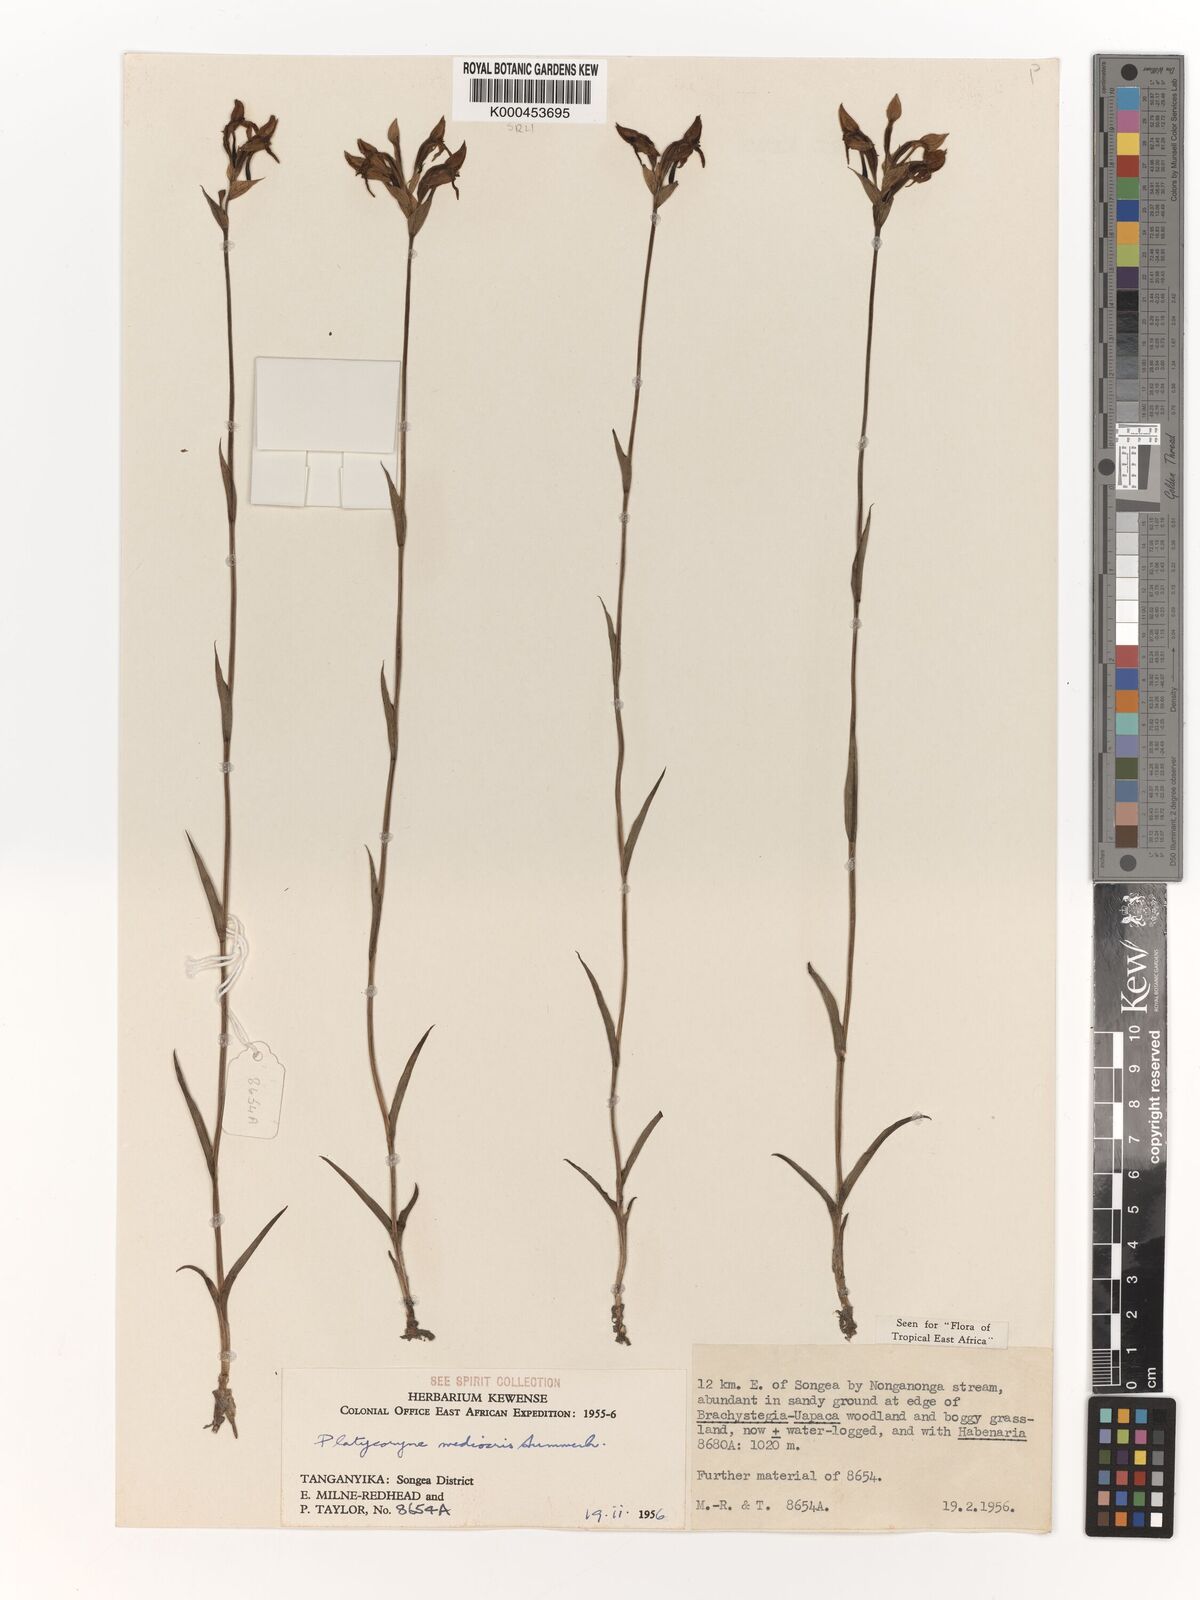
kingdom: Plantae
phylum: Tracheophyta
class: Liliopsida
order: Asparagales
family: Orchidaceae
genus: Platycoryne
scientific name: Platycoryne mediocris
